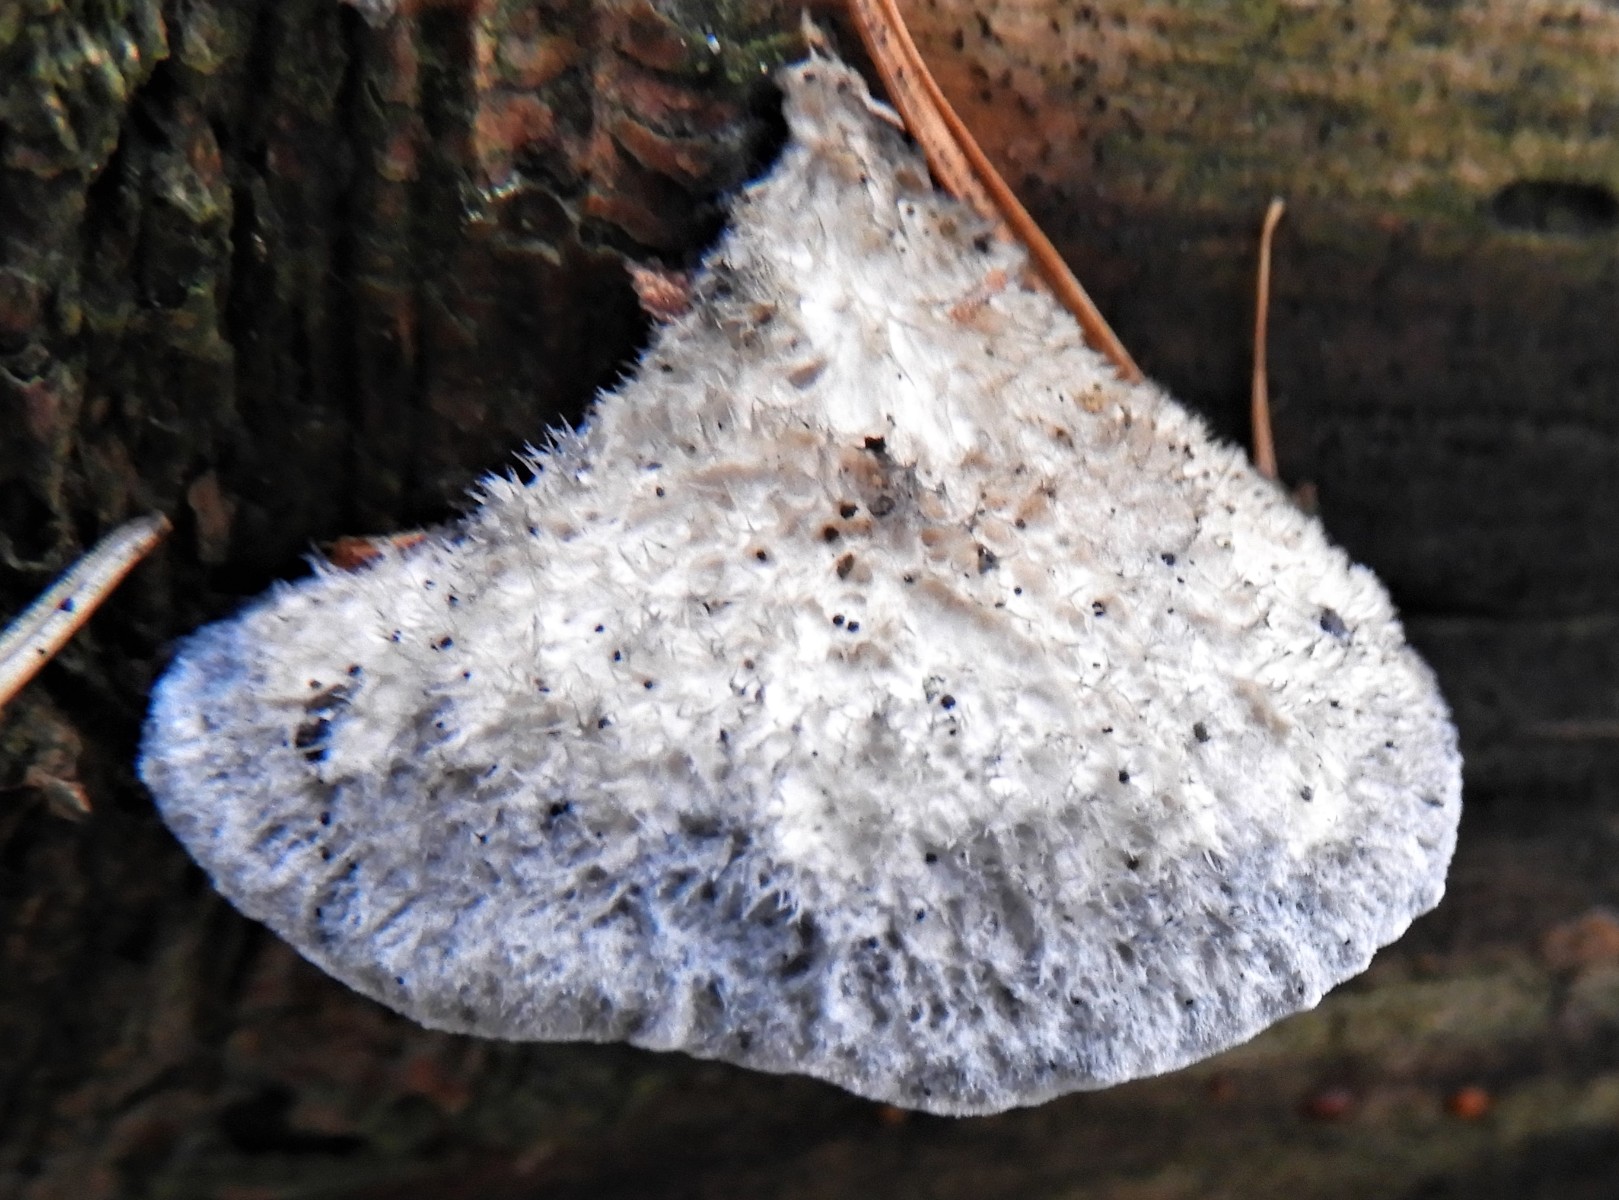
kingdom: Fungi
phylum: Basidiomycota
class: Agaricomycetes
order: Polyporales
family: Polyporaceae
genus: Cyanosporus
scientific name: Cyanosporus caesius
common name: blålig kødporesvamp
